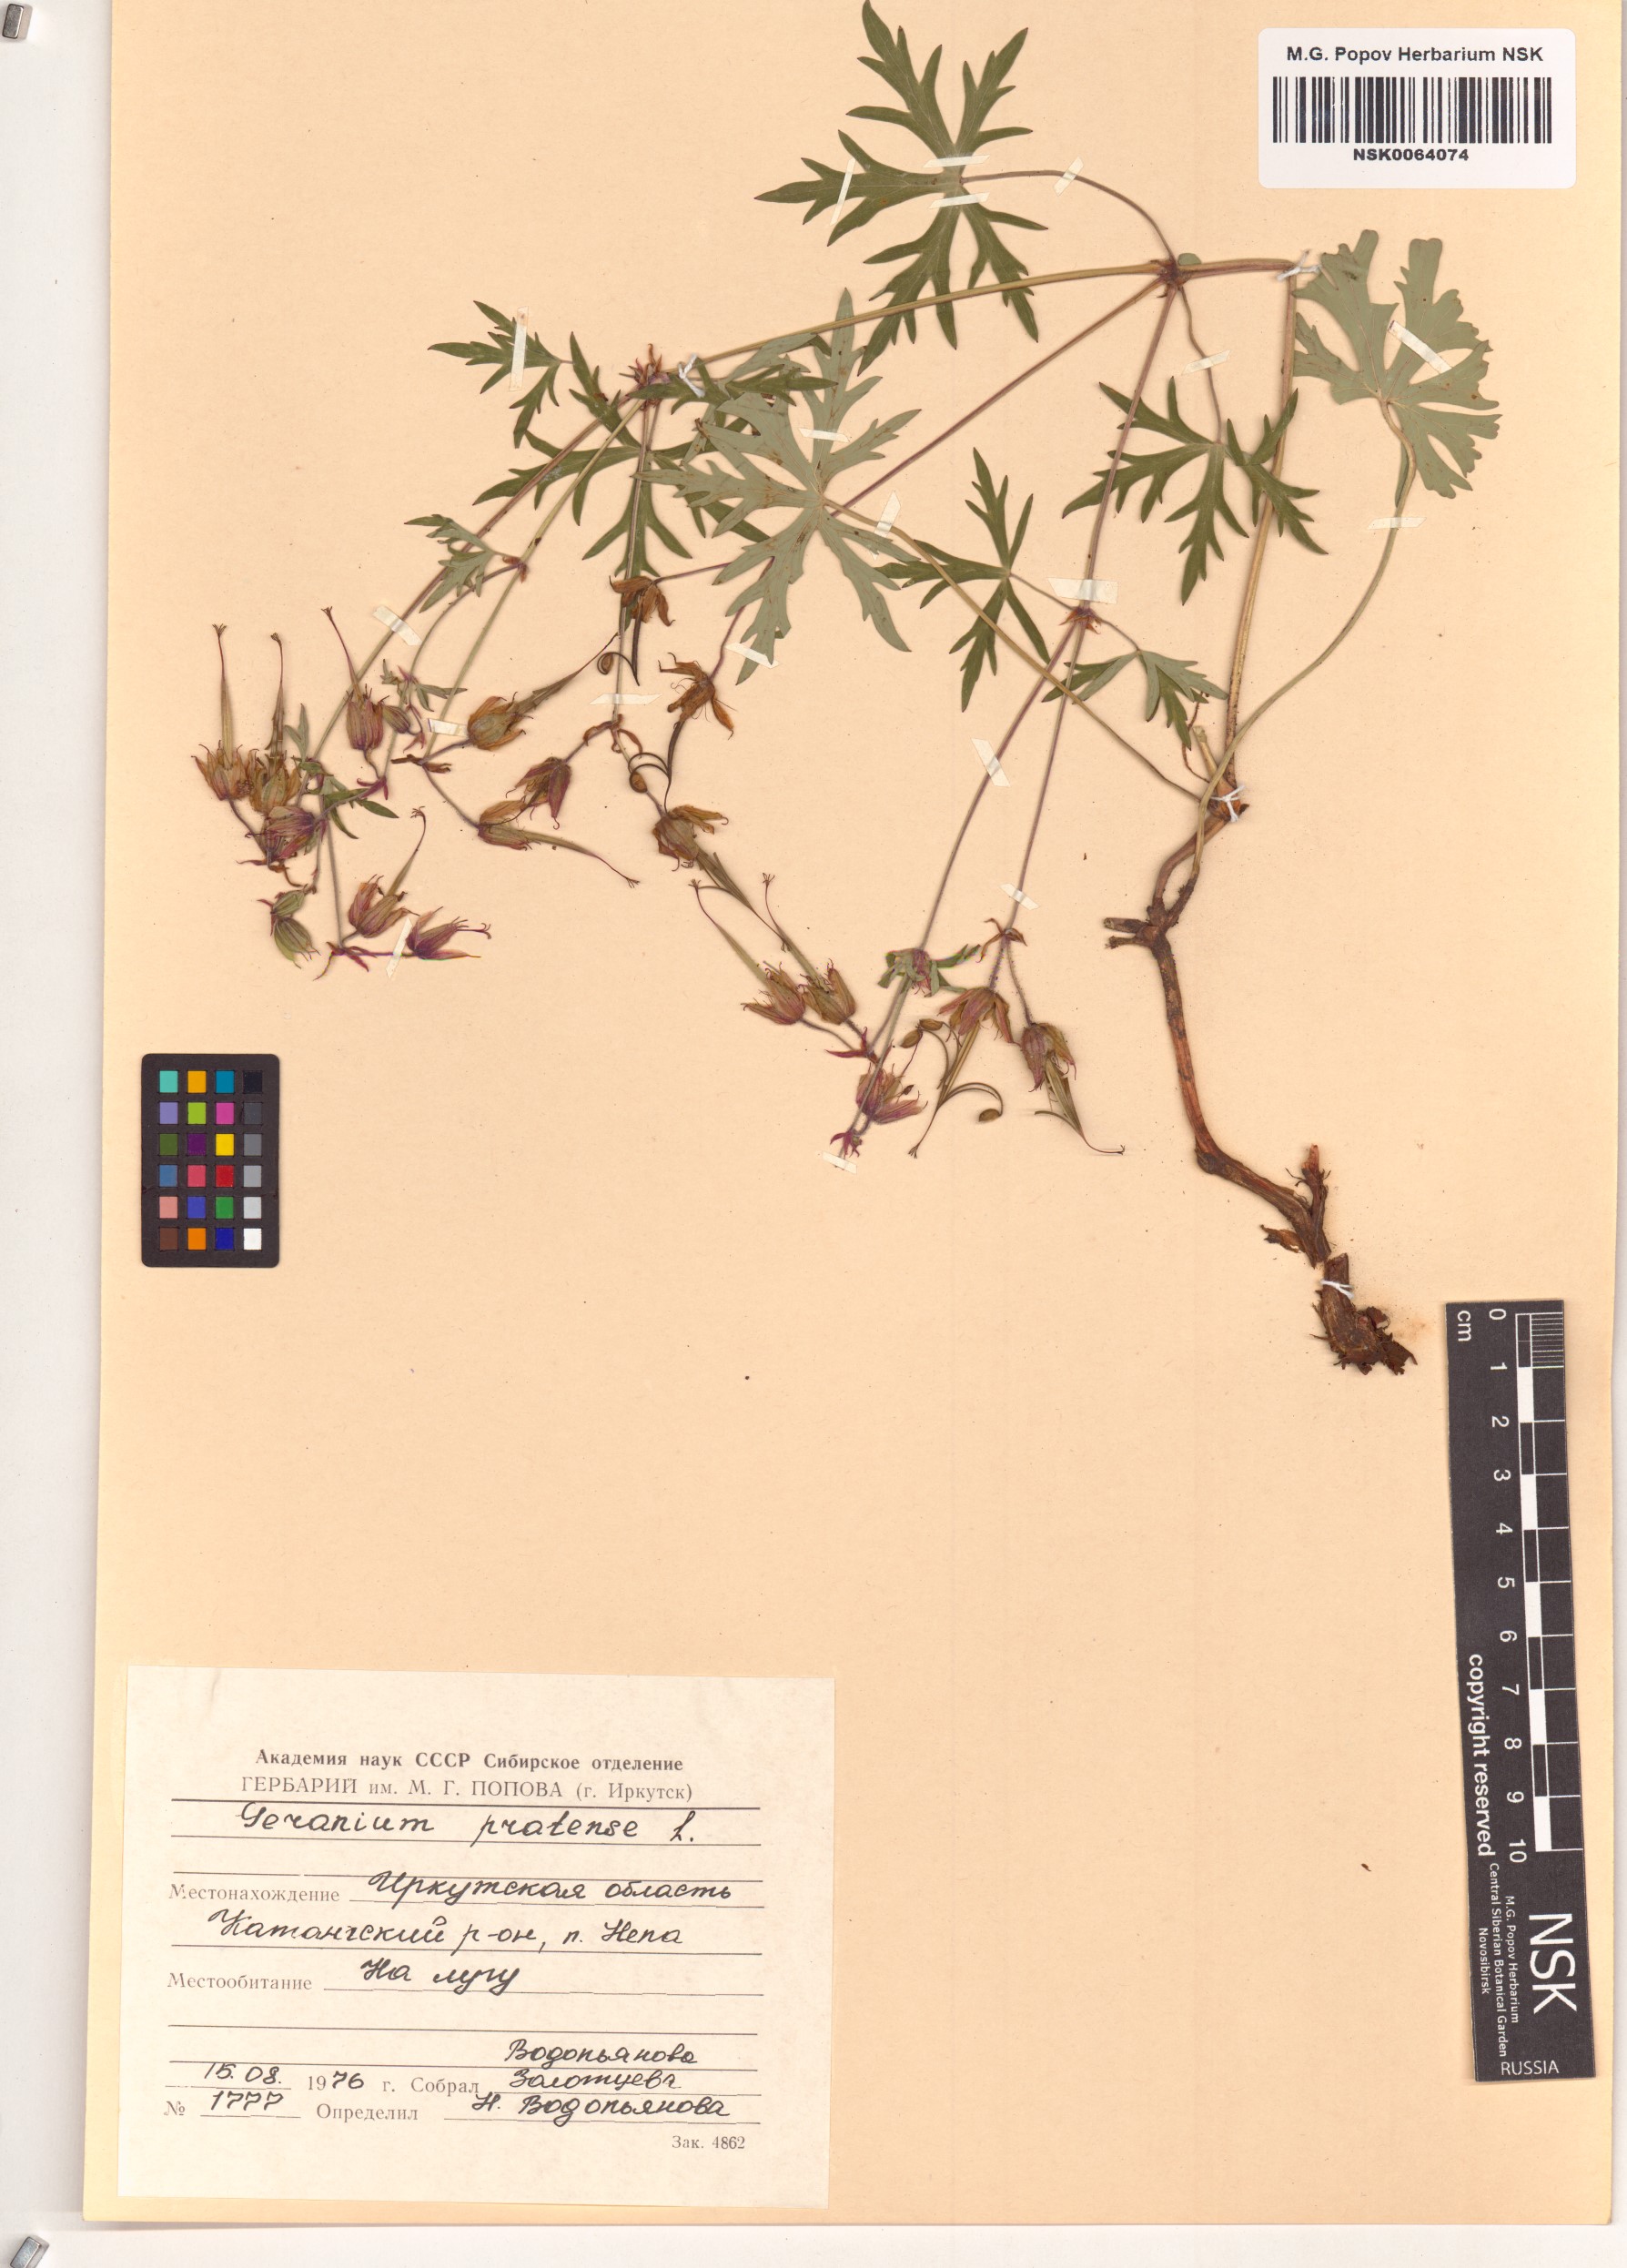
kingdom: Plantae
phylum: Tracheophyta
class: Magnoliopsida
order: Geraniales
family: Geraniaceae
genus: Geranium
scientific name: Geranium pratense
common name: Meadow crane's-bill
